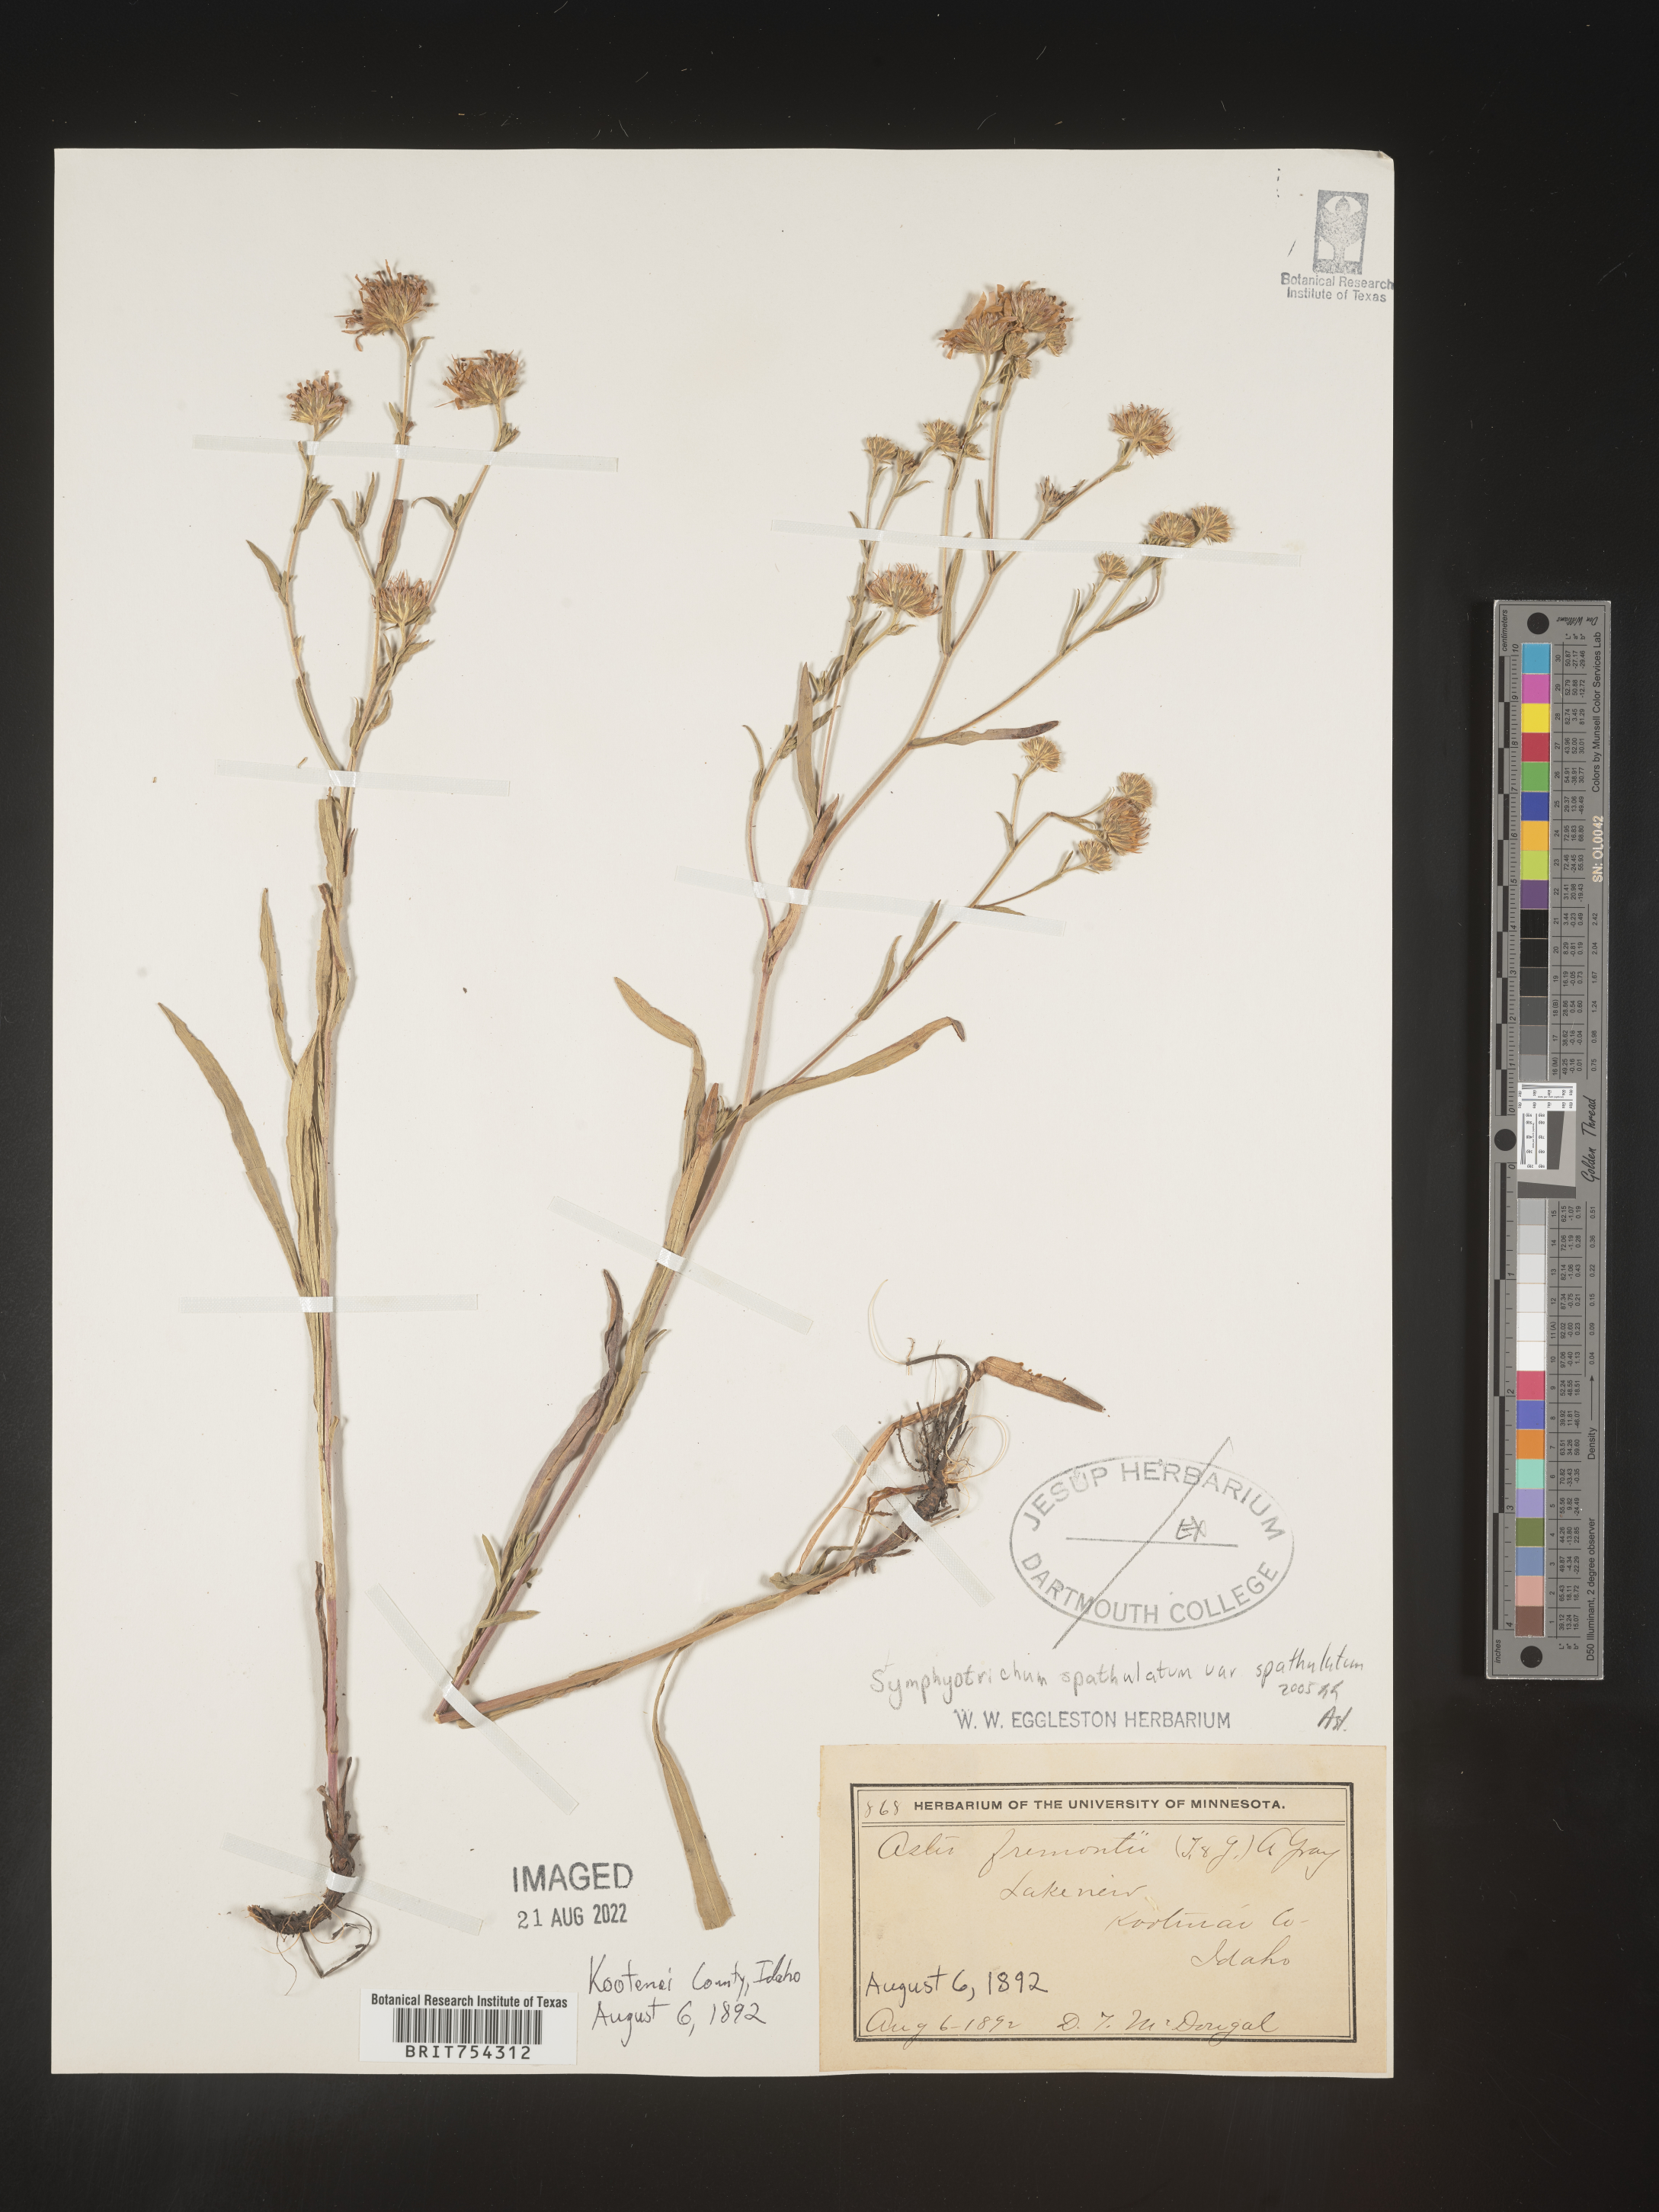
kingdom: Plantae
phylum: Tracheophyta
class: Magnoliopsida
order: Asterales
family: Asteraceae
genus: Symphyotrichum
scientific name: Symphyotrichum subspicatum
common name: Douglas' aster
